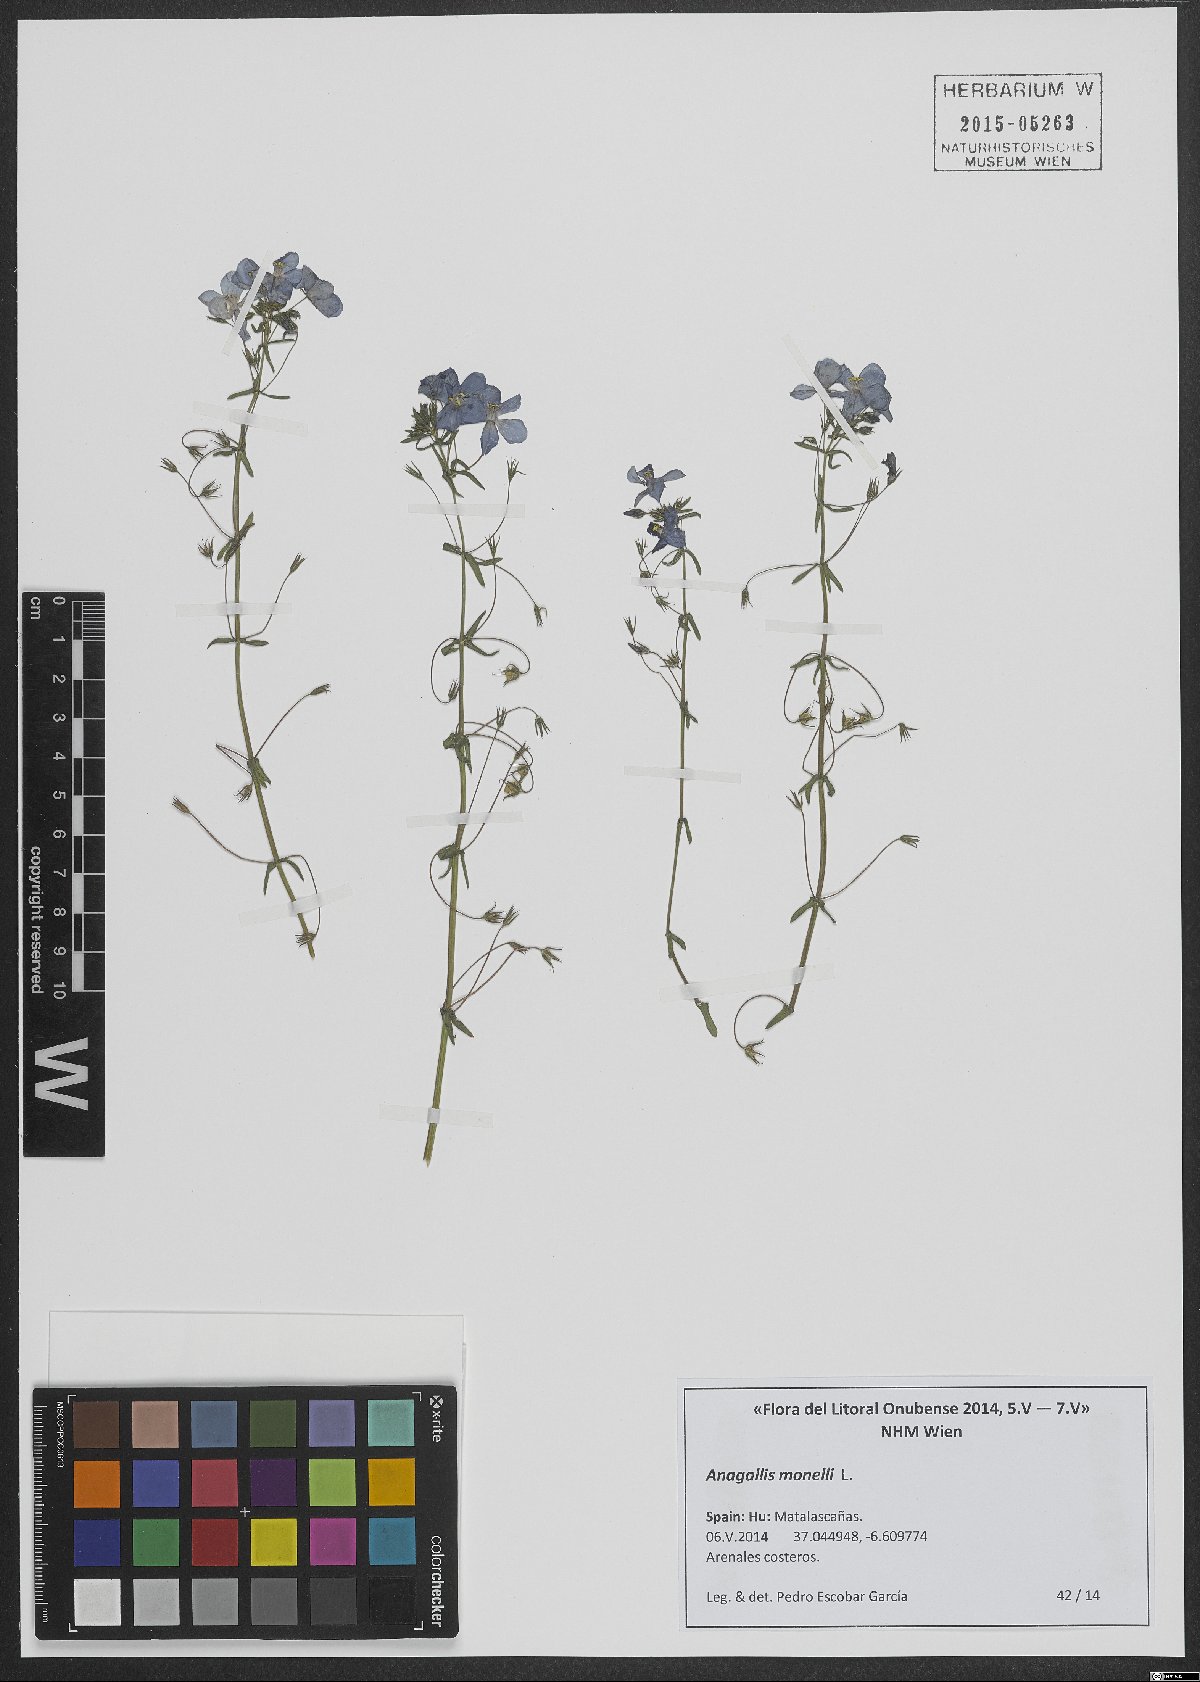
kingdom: Plantae
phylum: Tracheophyta
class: Magnoliopsida
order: Ericales
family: Primulaceae
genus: Lysimachia
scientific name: Lysimachia monelli
